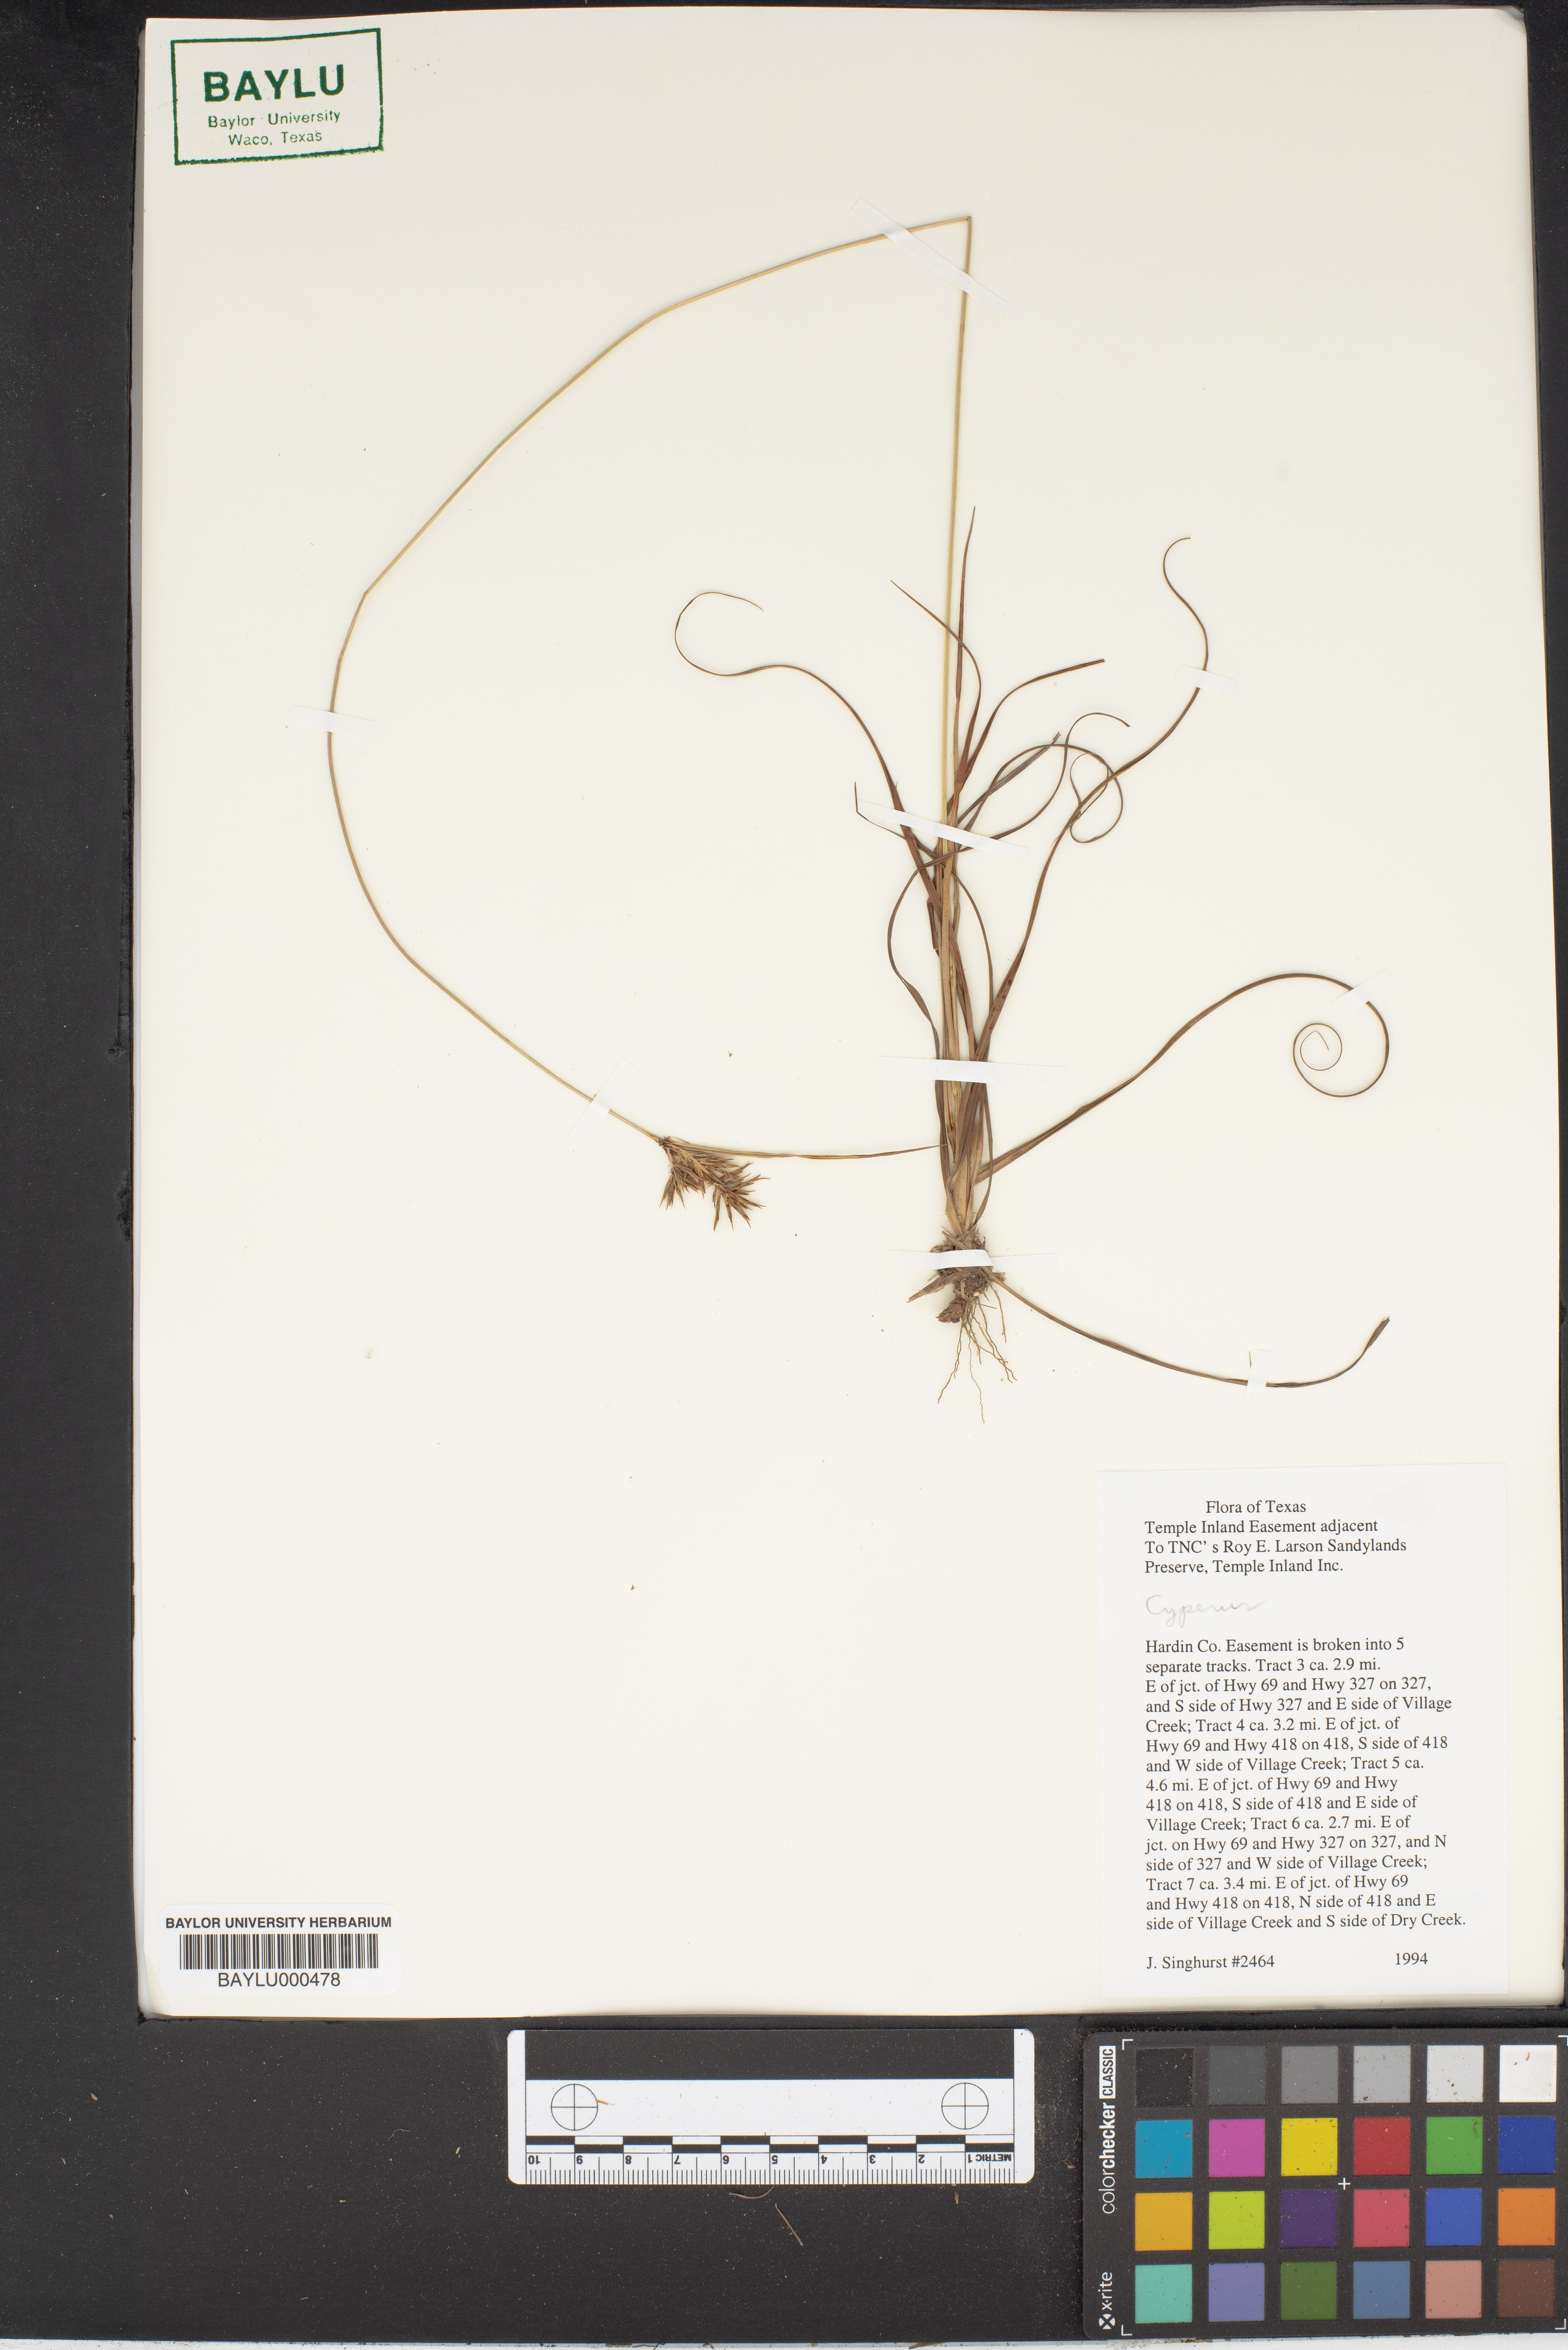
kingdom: Plantae
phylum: Tracheophyta
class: Liliopsida
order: Poales
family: Cyperaceae
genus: Cyperus
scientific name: Cyperus
